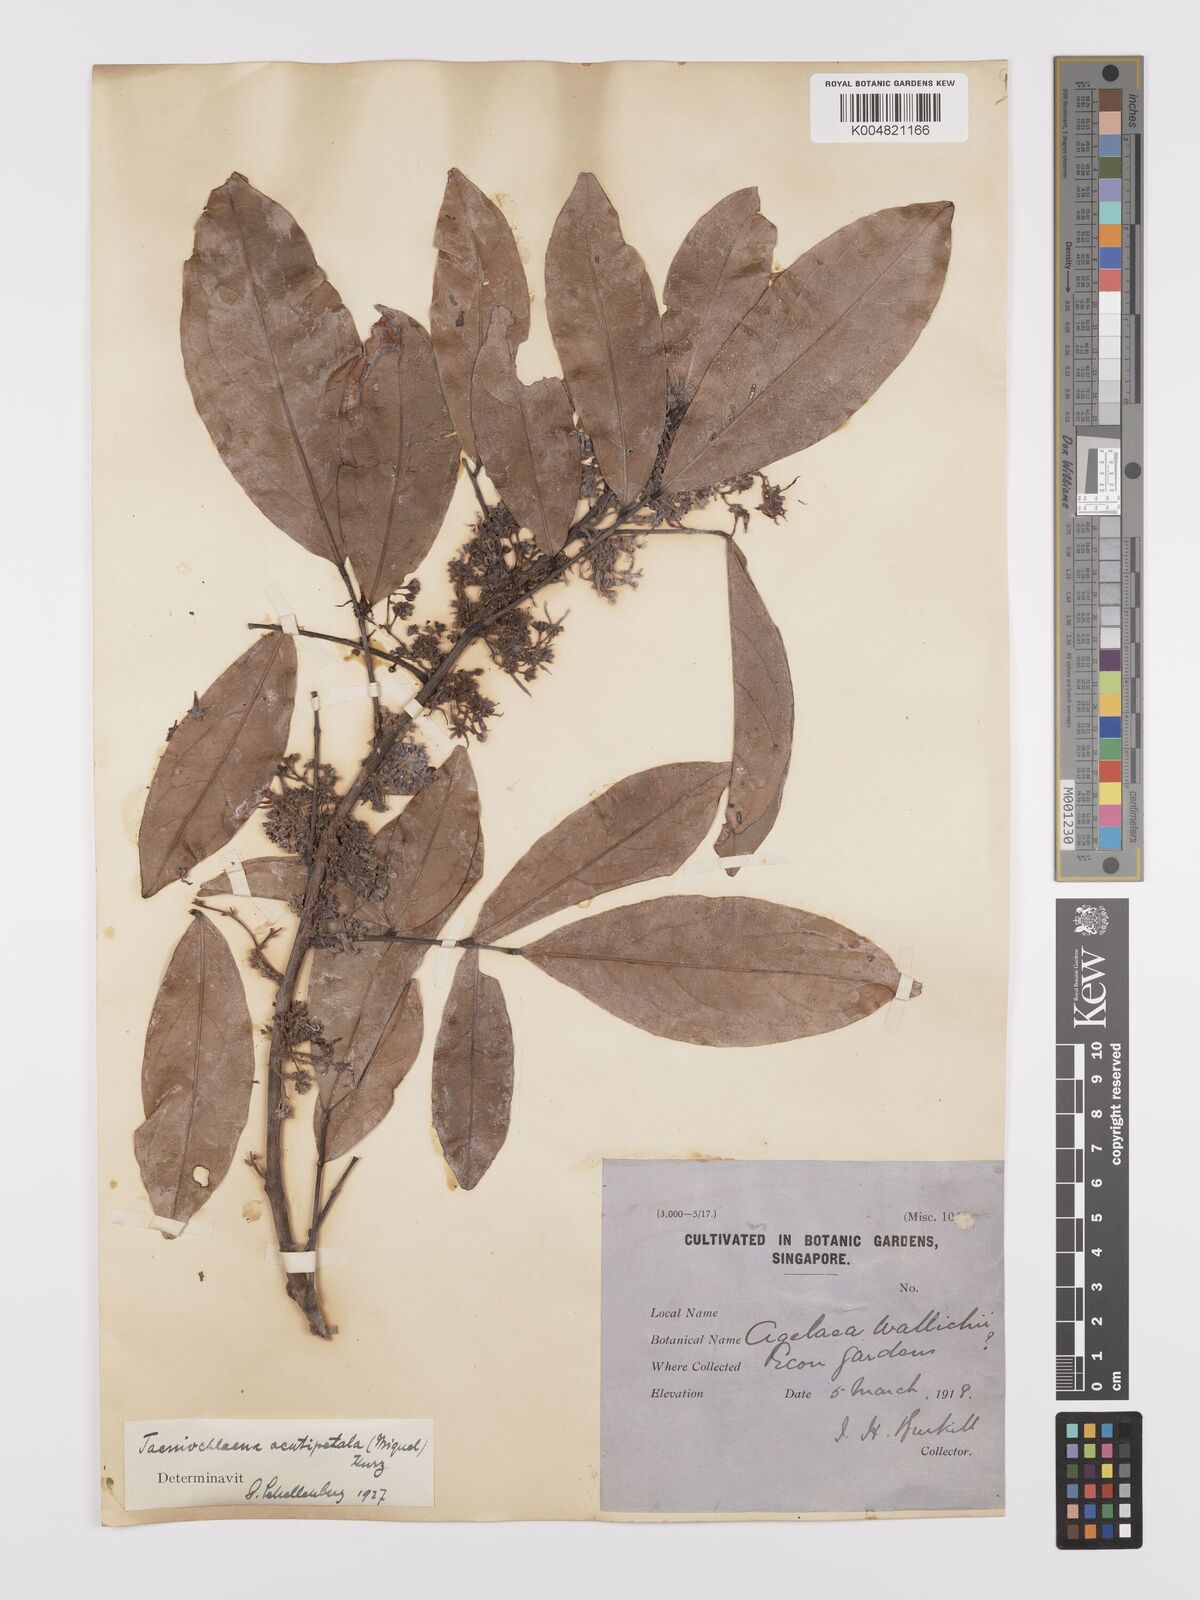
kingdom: Plantae
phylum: Tracheophyta
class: Magnoliopsida
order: Oxalidales
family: Connaraceae
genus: Rourea
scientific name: Rourea acutipetala
